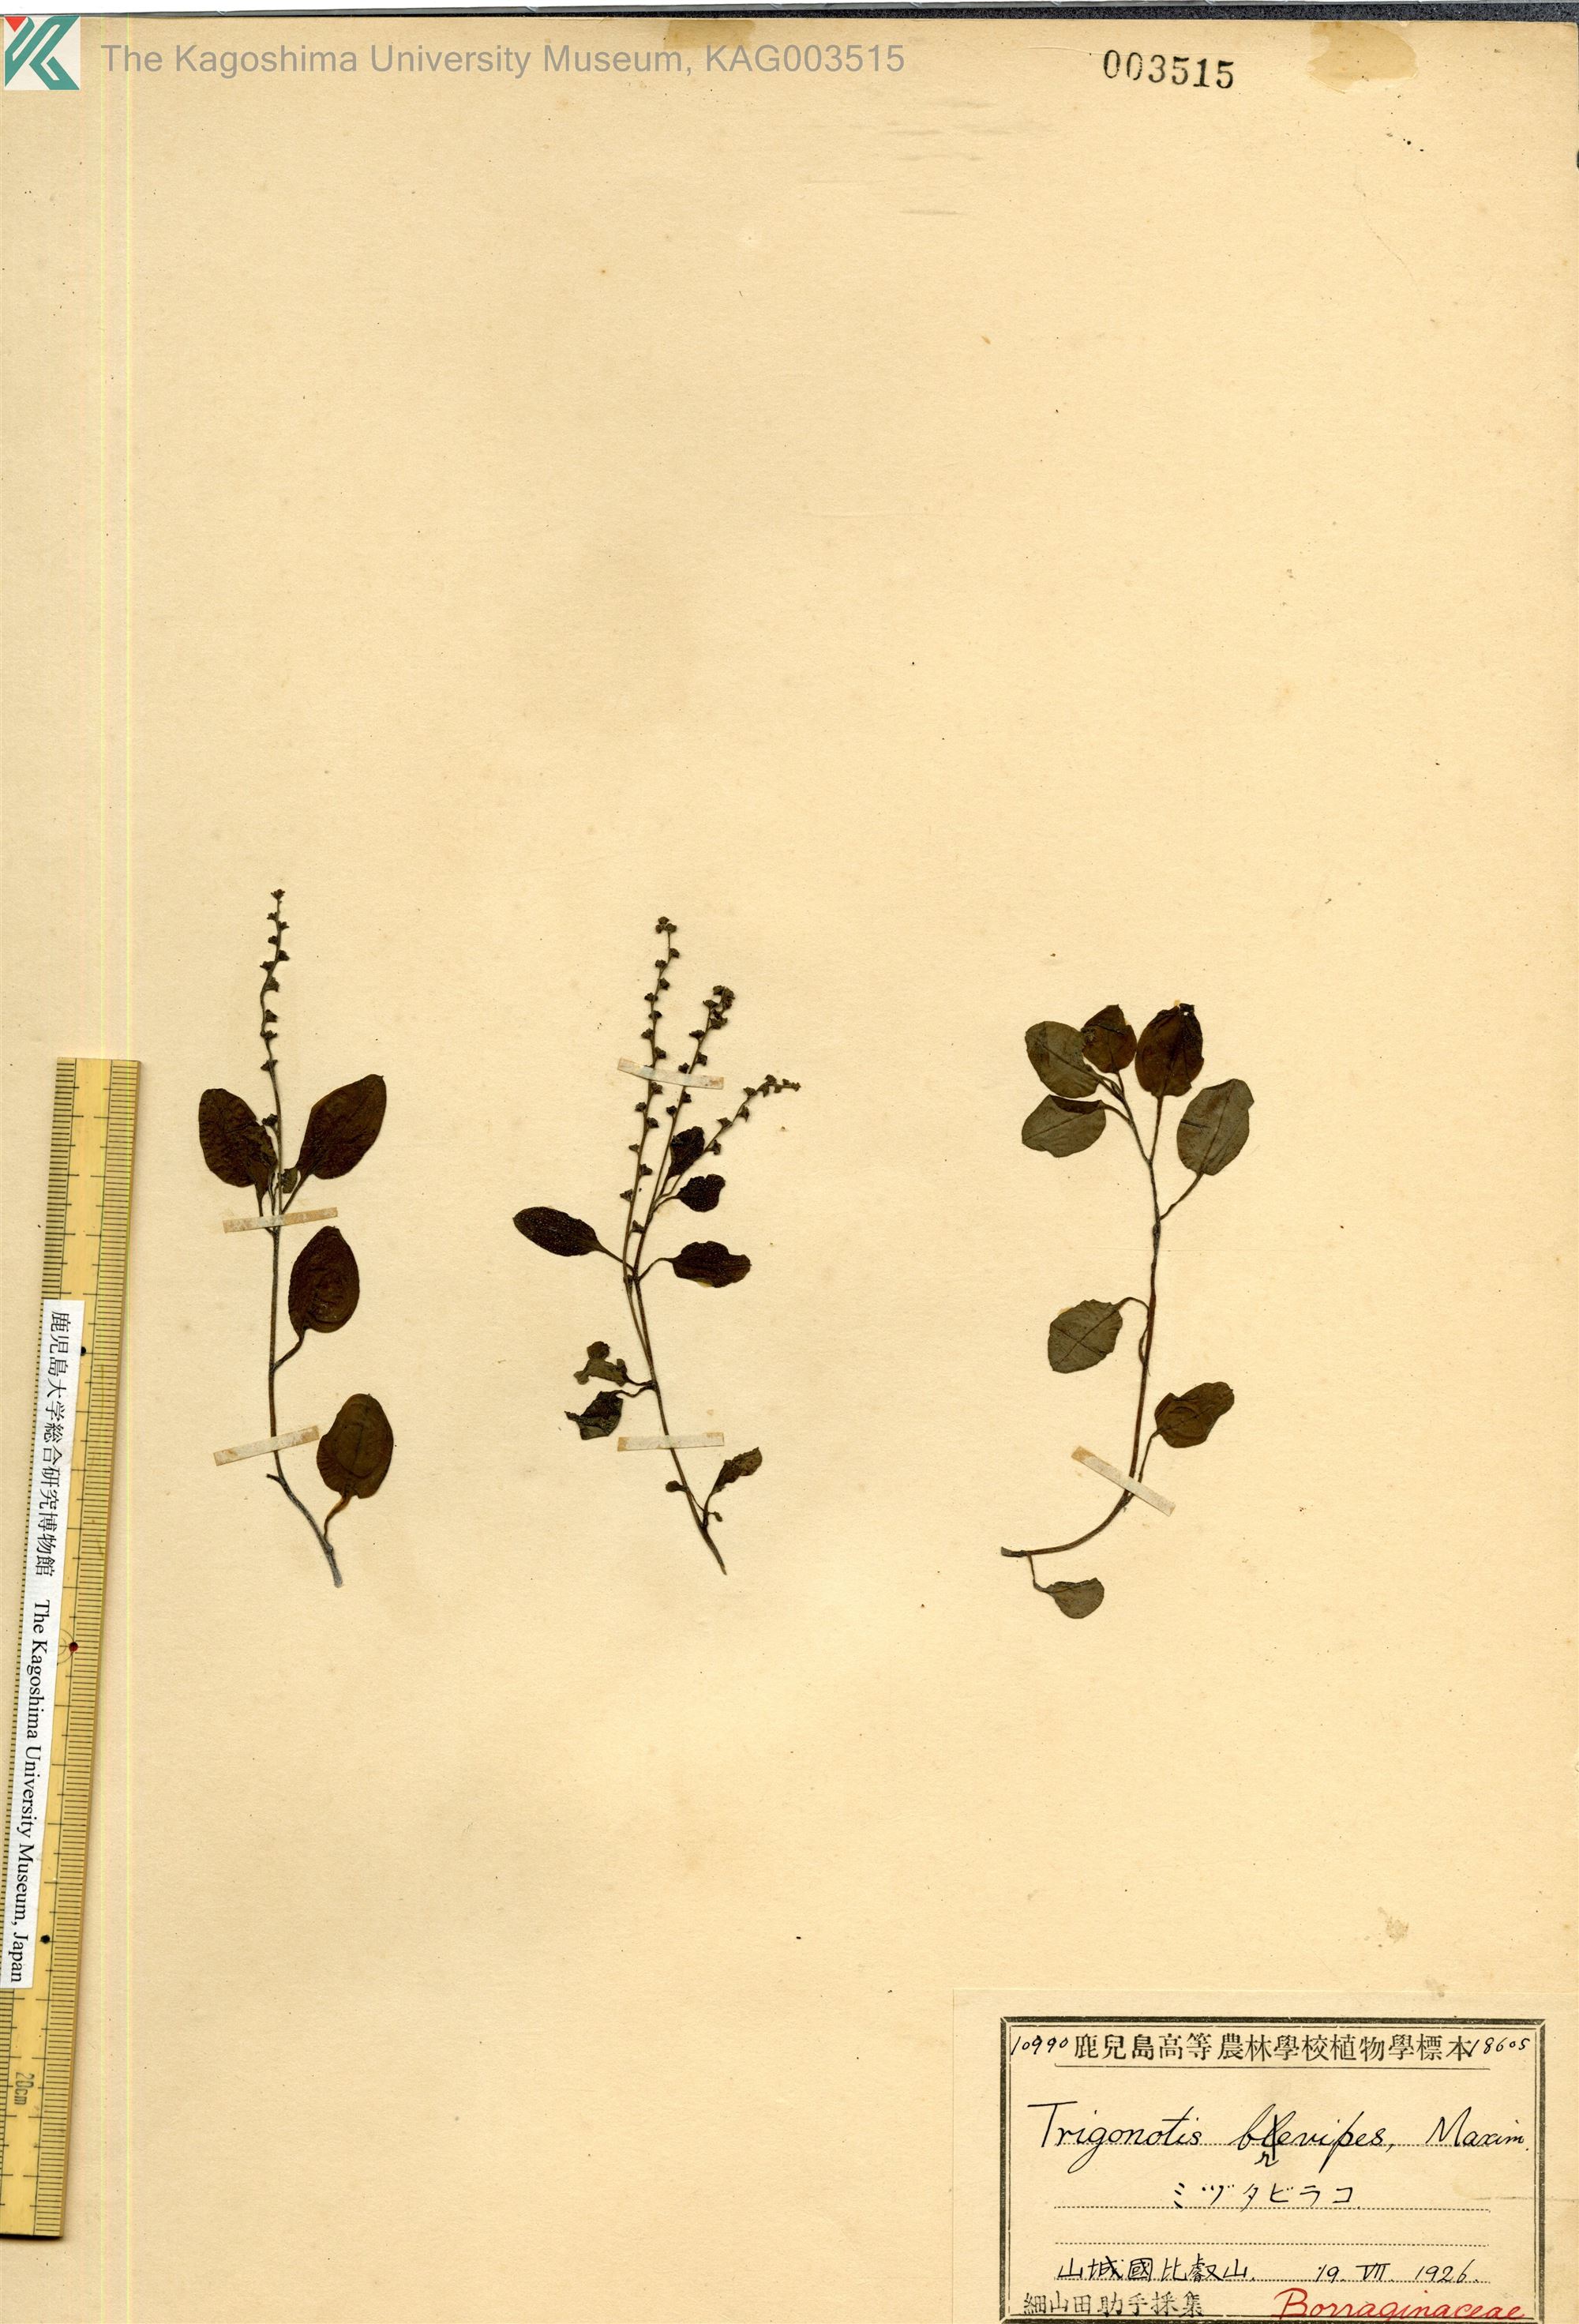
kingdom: Plantae
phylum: Tracheophyta
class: Magnoliopsida
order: Boraginales
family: Boraginaceae
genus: Trigonotis
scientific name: Trigonotis brevipes
